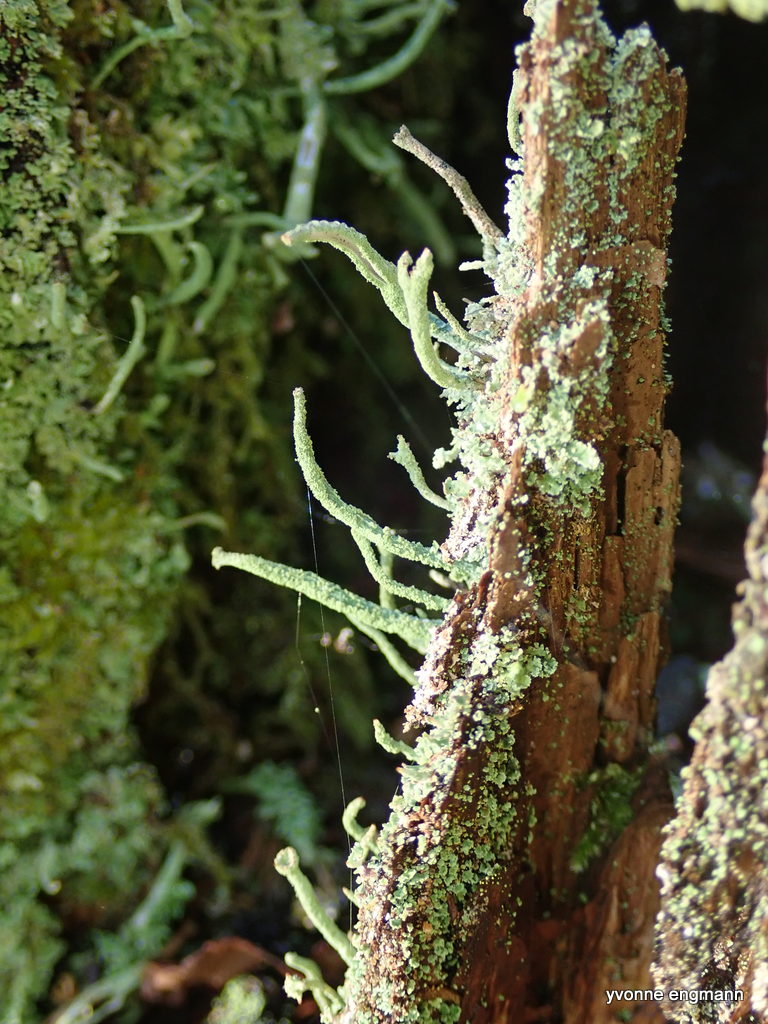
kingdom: Fungi
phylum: Ascomycota
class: Lecanoromycetes
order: Lecanorales
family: Cladoniaceae
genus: Cladonia
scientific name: Cladonia ochrochlora
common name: stød-bægerlav
